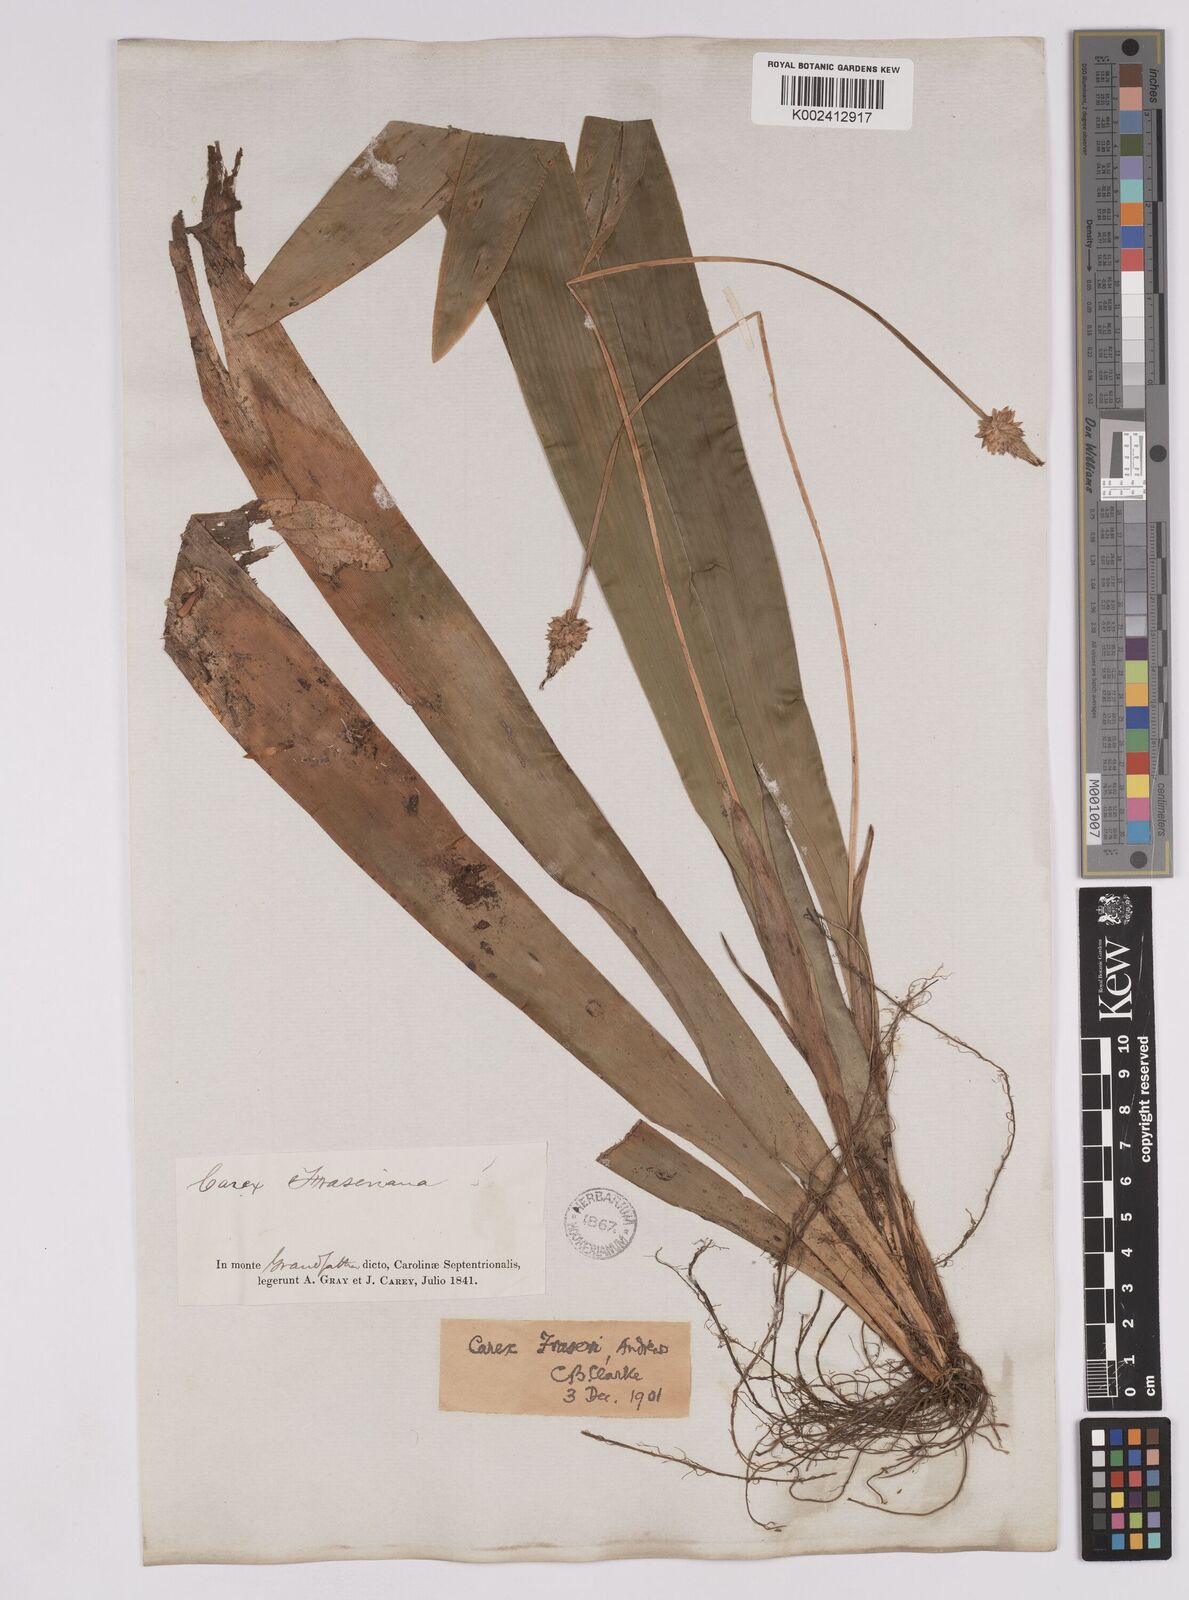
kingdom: Plantae
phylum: Tracheophyta
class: Liliopsida
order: Poales
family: Cyperaceae
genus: Carex
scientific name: Carex fraseriana
